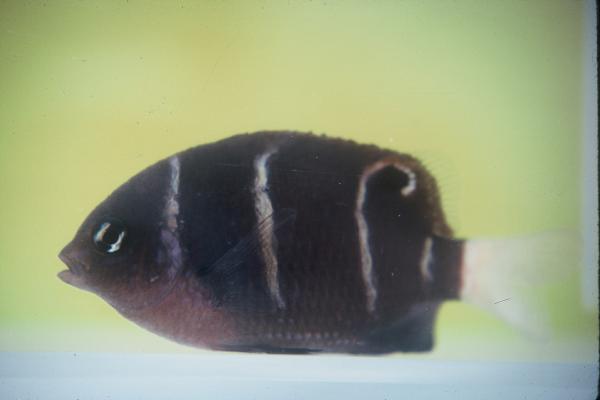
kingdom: Animalia
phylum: Chordata
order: Perciformes
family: Pomacentridae
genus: Plectroglyphidodon
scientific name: Plectroglyphidodon phoenixensis
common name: Phoenix damsel
